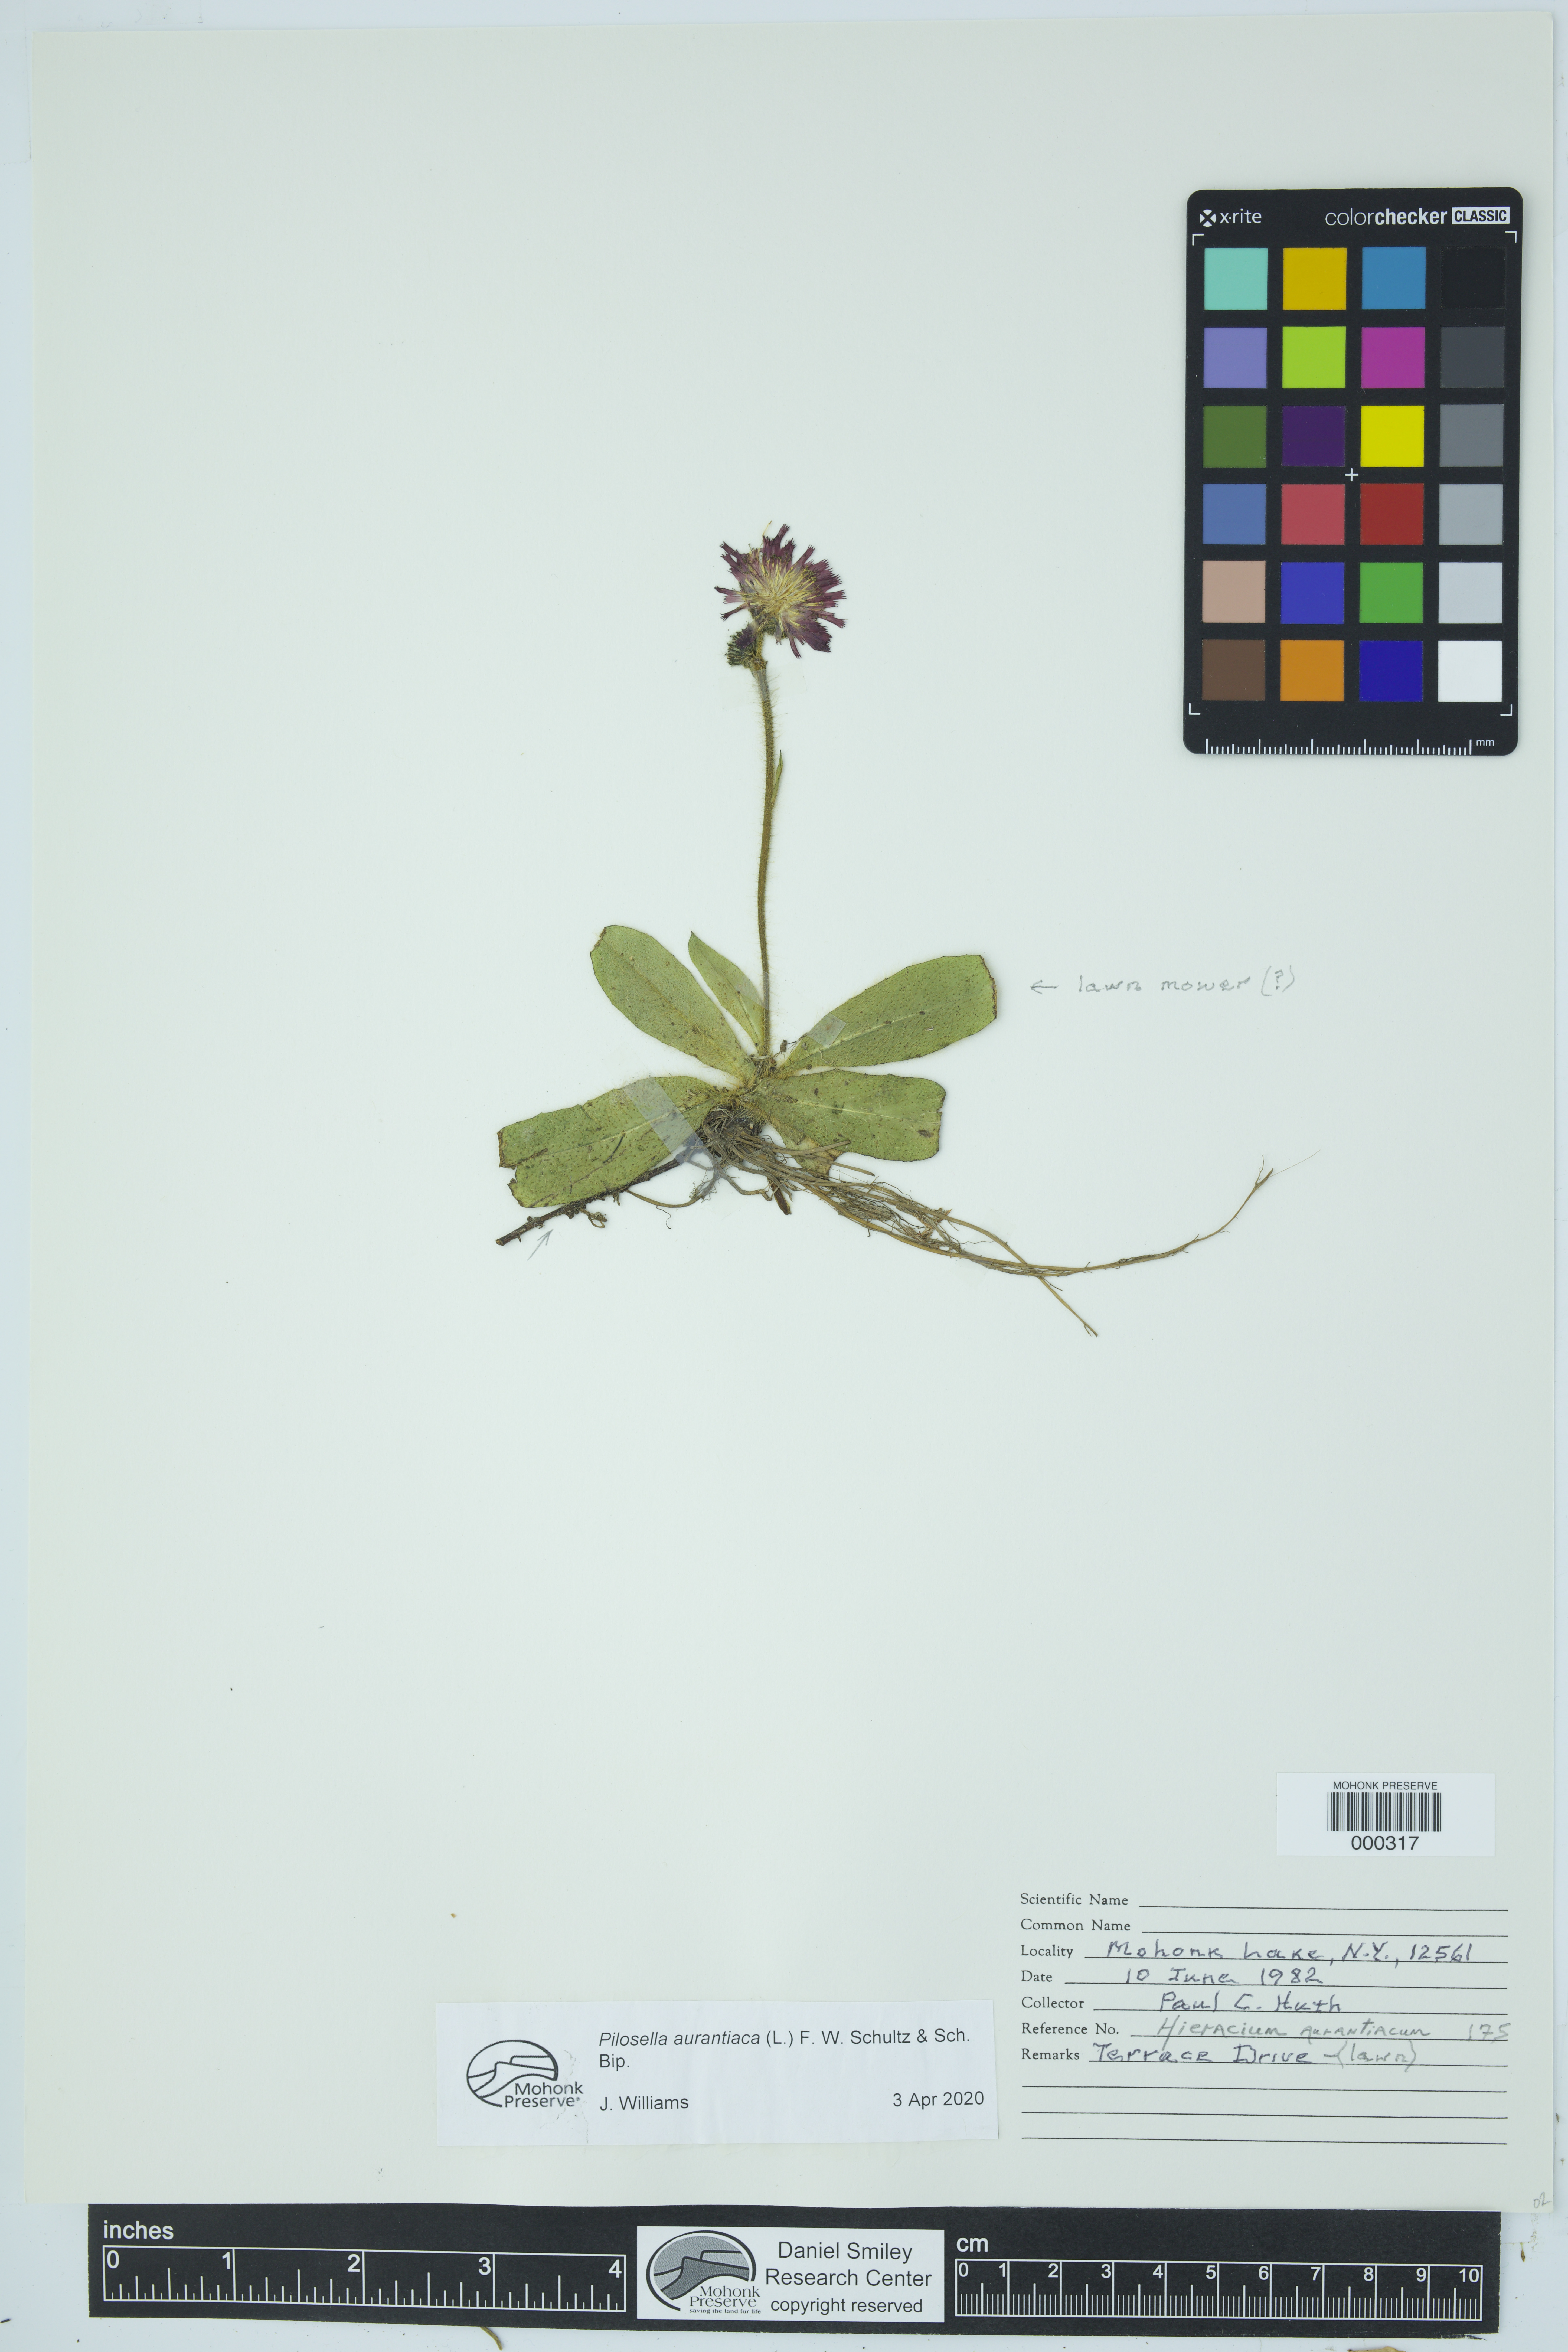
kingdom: Plantae
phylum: Tracheophyta
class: Magnoliopsida
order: Asterales
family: Asteraceae
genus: Pilosella
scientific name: Pilosella aurantiaca
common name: Fox-and-cubs
